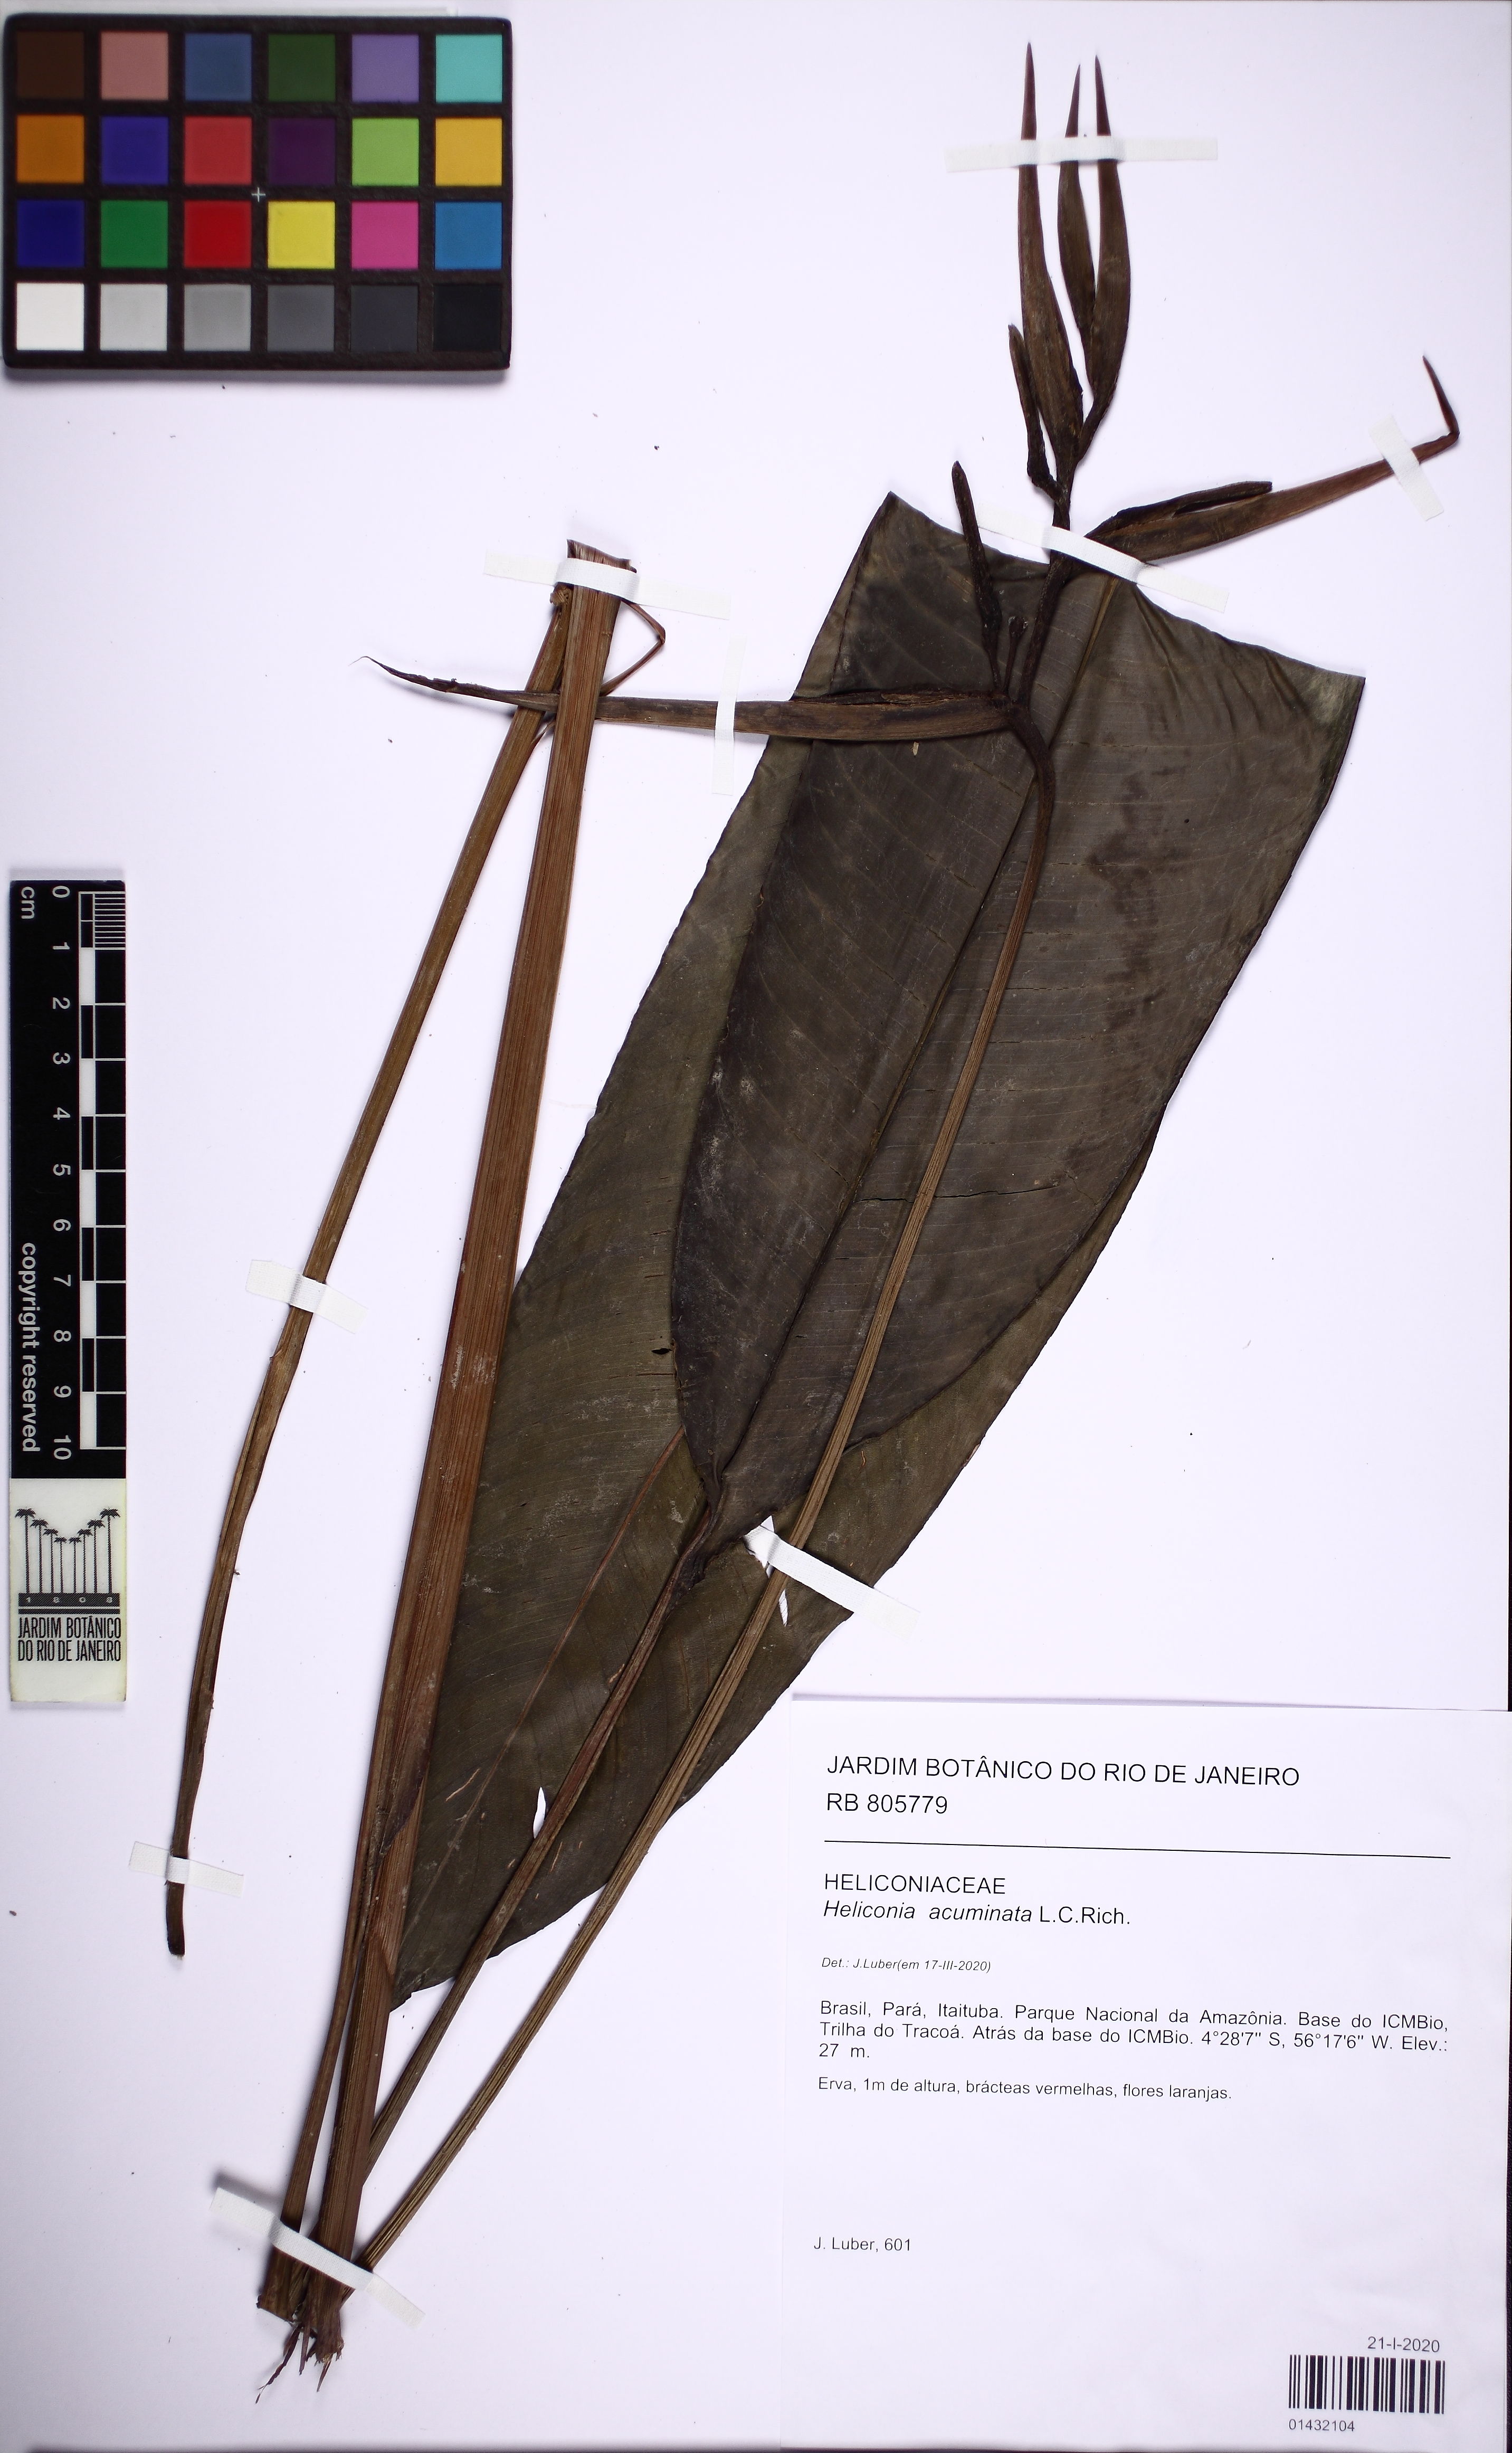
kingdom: Plantae
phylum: Tracheophyta
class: Liliopsida
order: Zingiberales
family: Heliconiaceae
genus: Heliconia
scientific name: Heliconia acuminata
